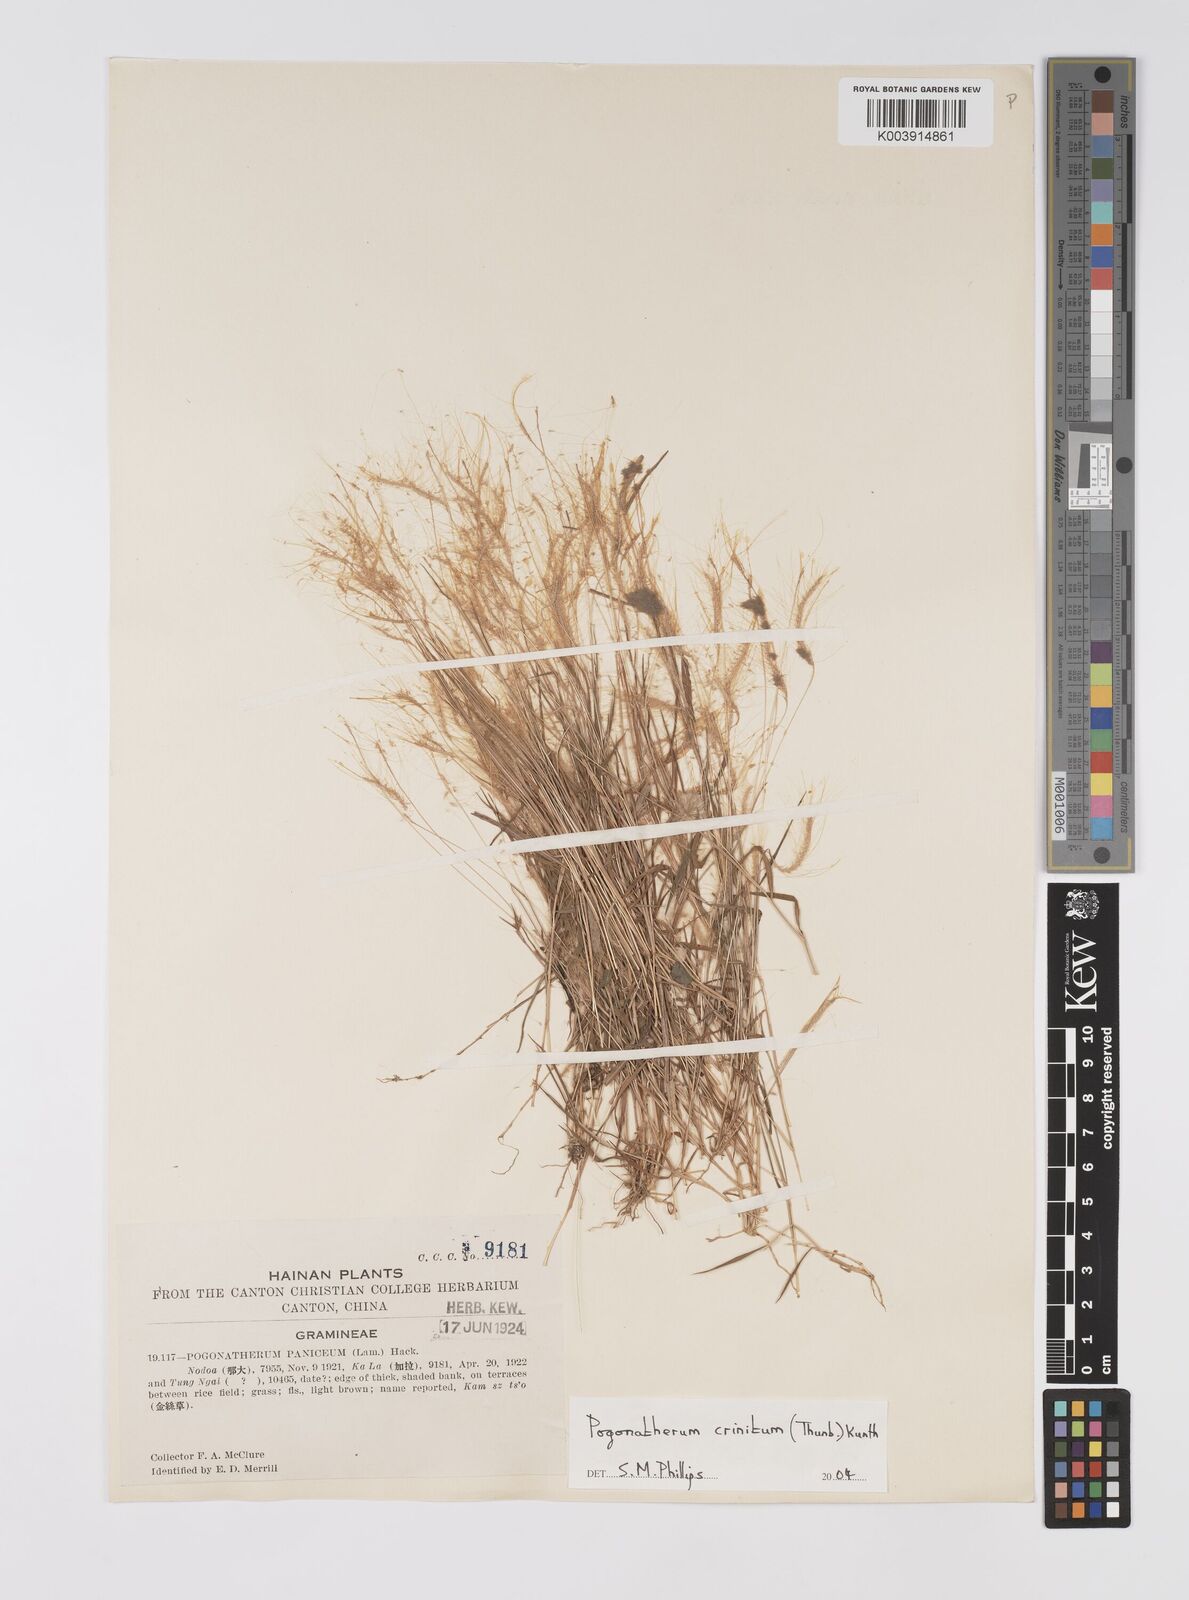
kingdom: Plantae
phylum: Tracheophyta
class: Liliopsida
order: Poales
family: Poaceae
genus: Pogonatherum
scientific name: Pogonatherum crinitum
